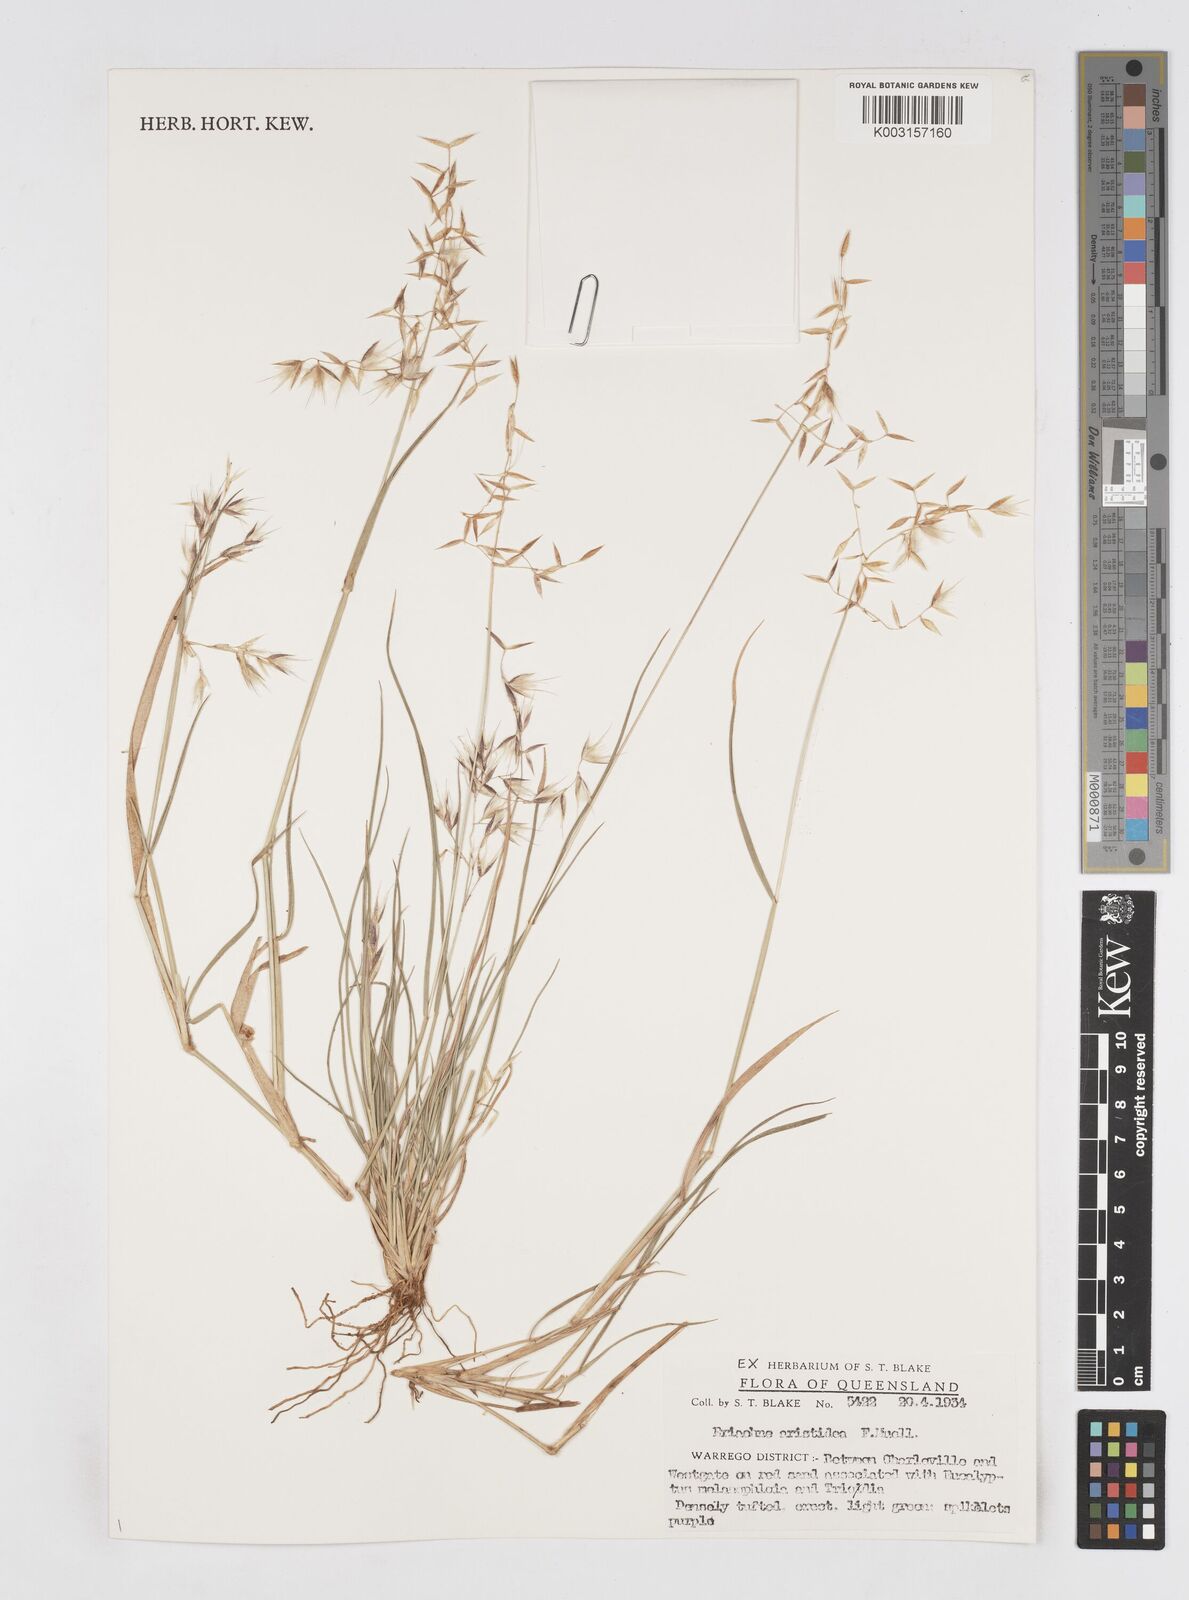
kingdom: Plantae
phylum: Tracheophyta
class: Liliopsida
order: Poales
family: Poaceae
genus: Eriachne
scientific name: Eriachne aristidea
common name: Three-awn wanderrie grass
